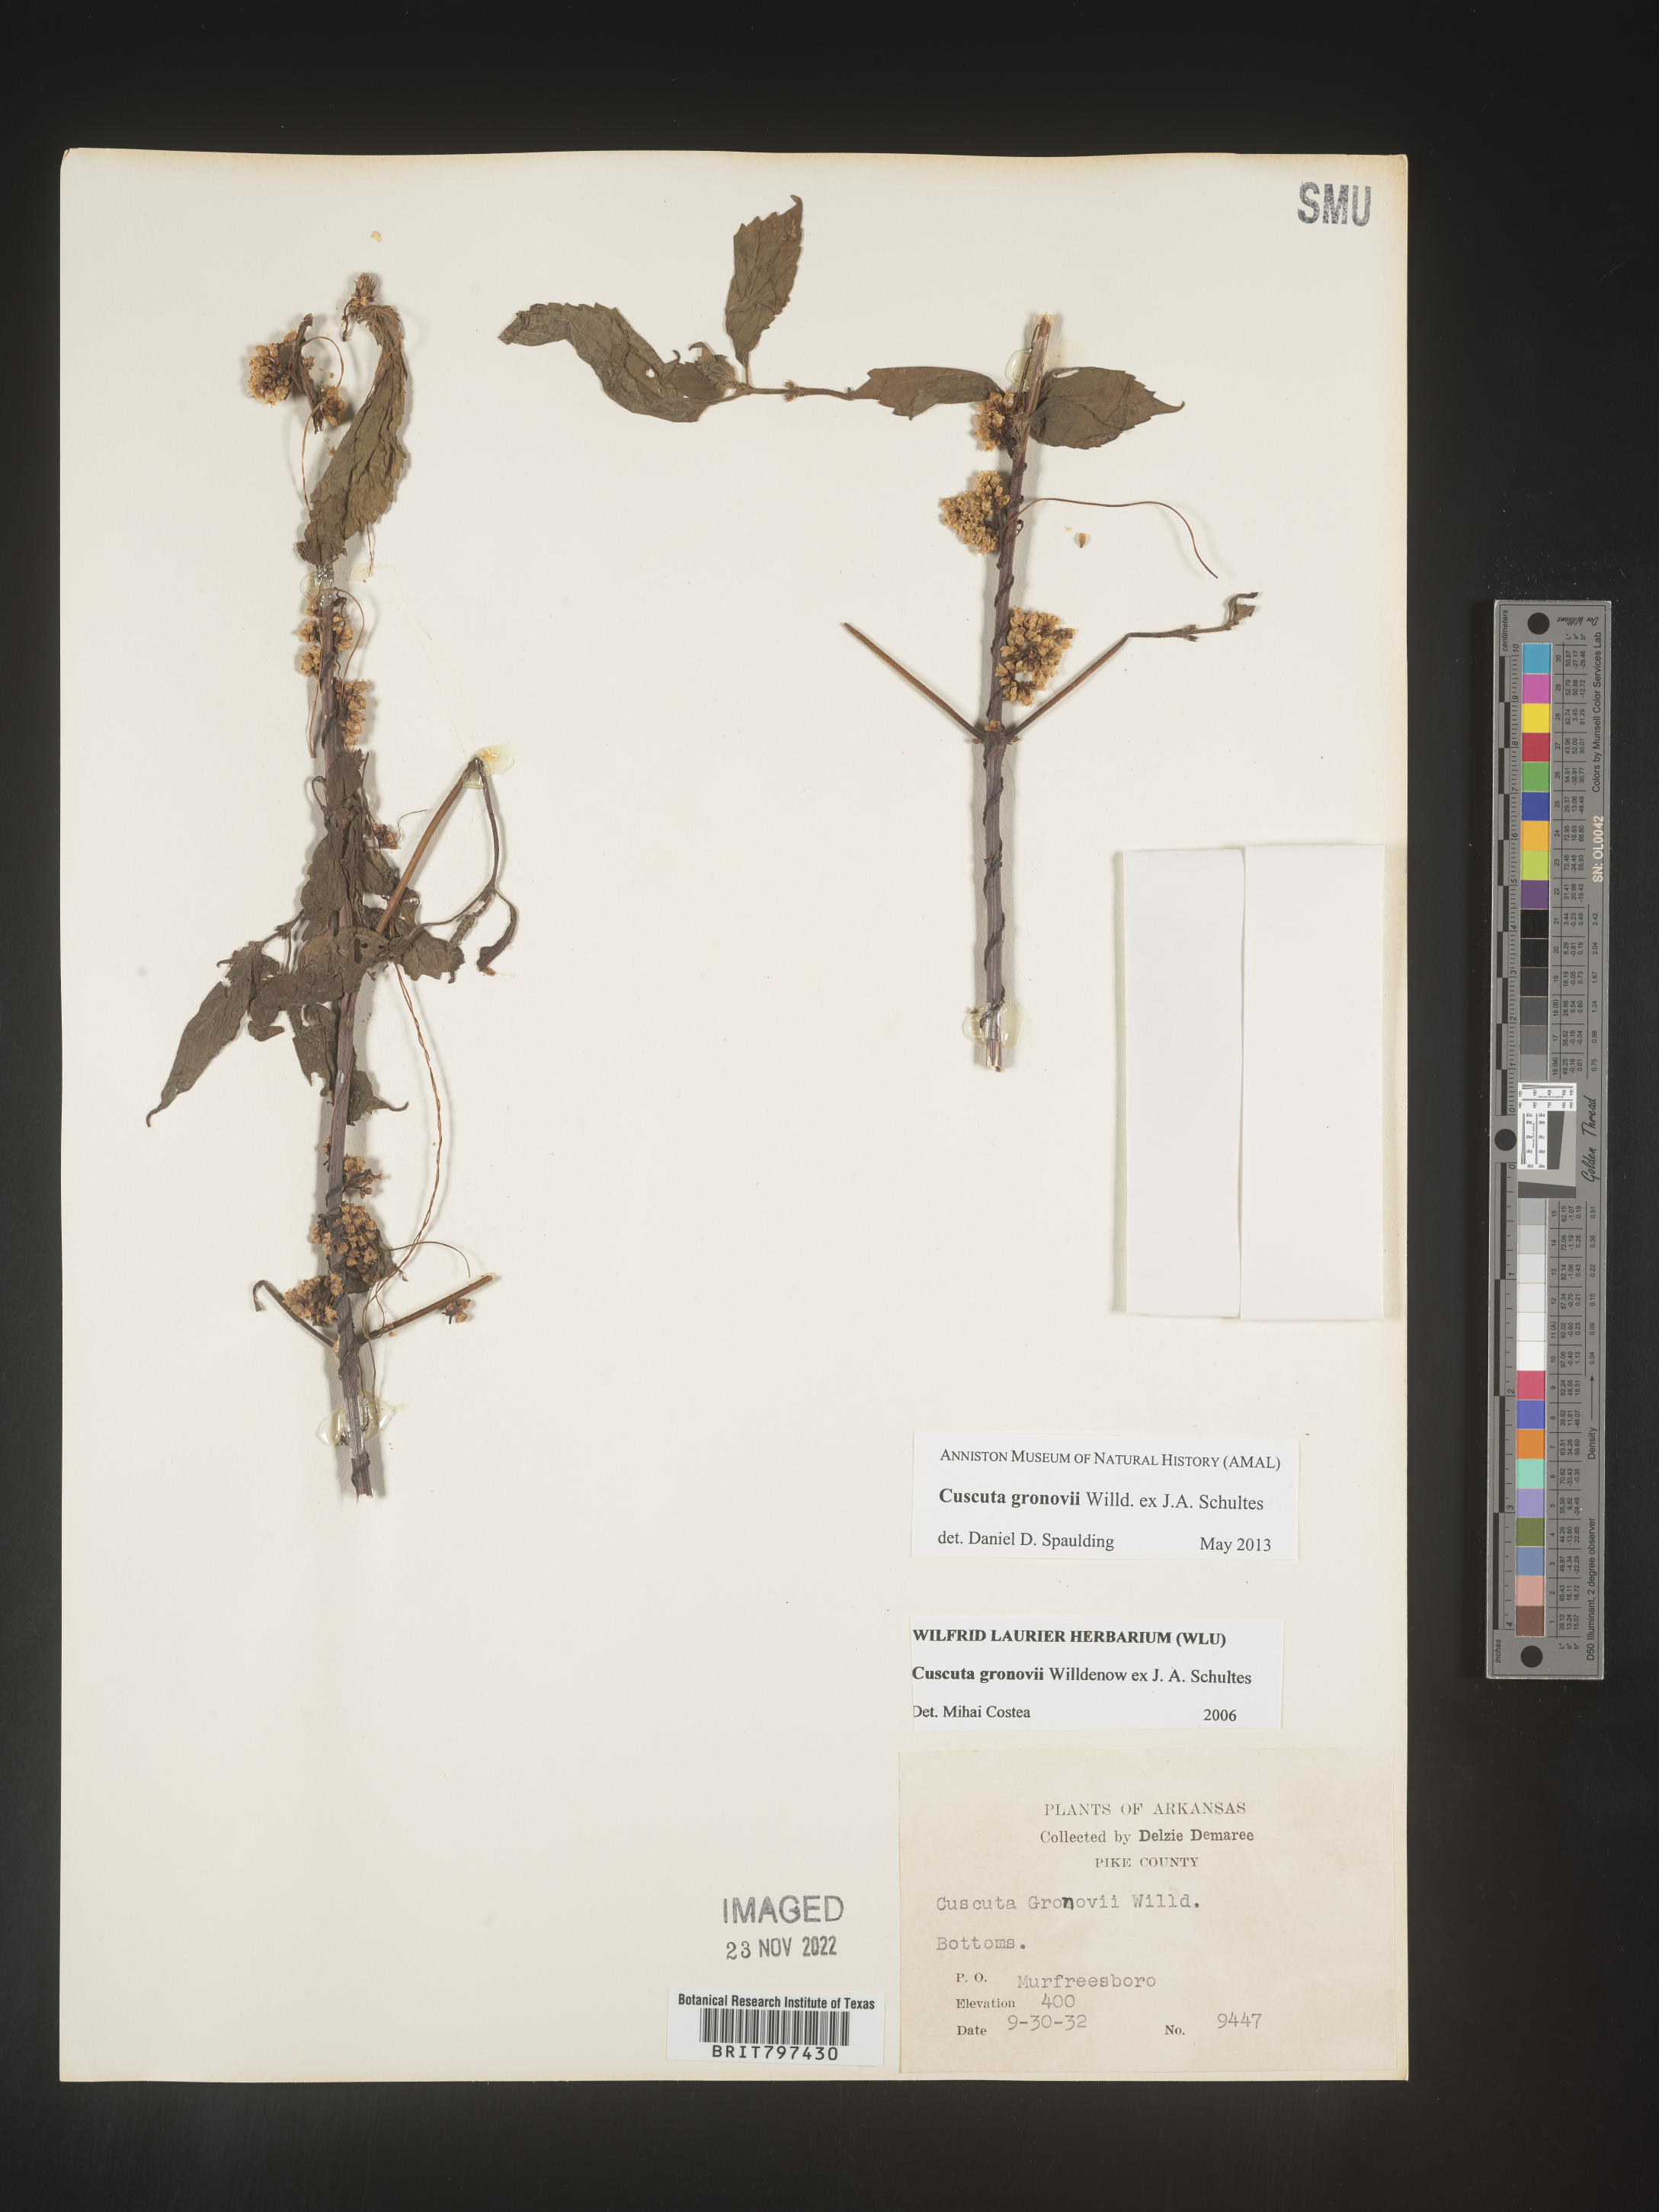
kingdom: Plantae
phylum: Tracheophyta
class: Magnoliopsida
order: Solanales
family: Convolvulaceae
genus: Cuscuta
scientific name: Cuscuta gronovii
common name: Common dodder
